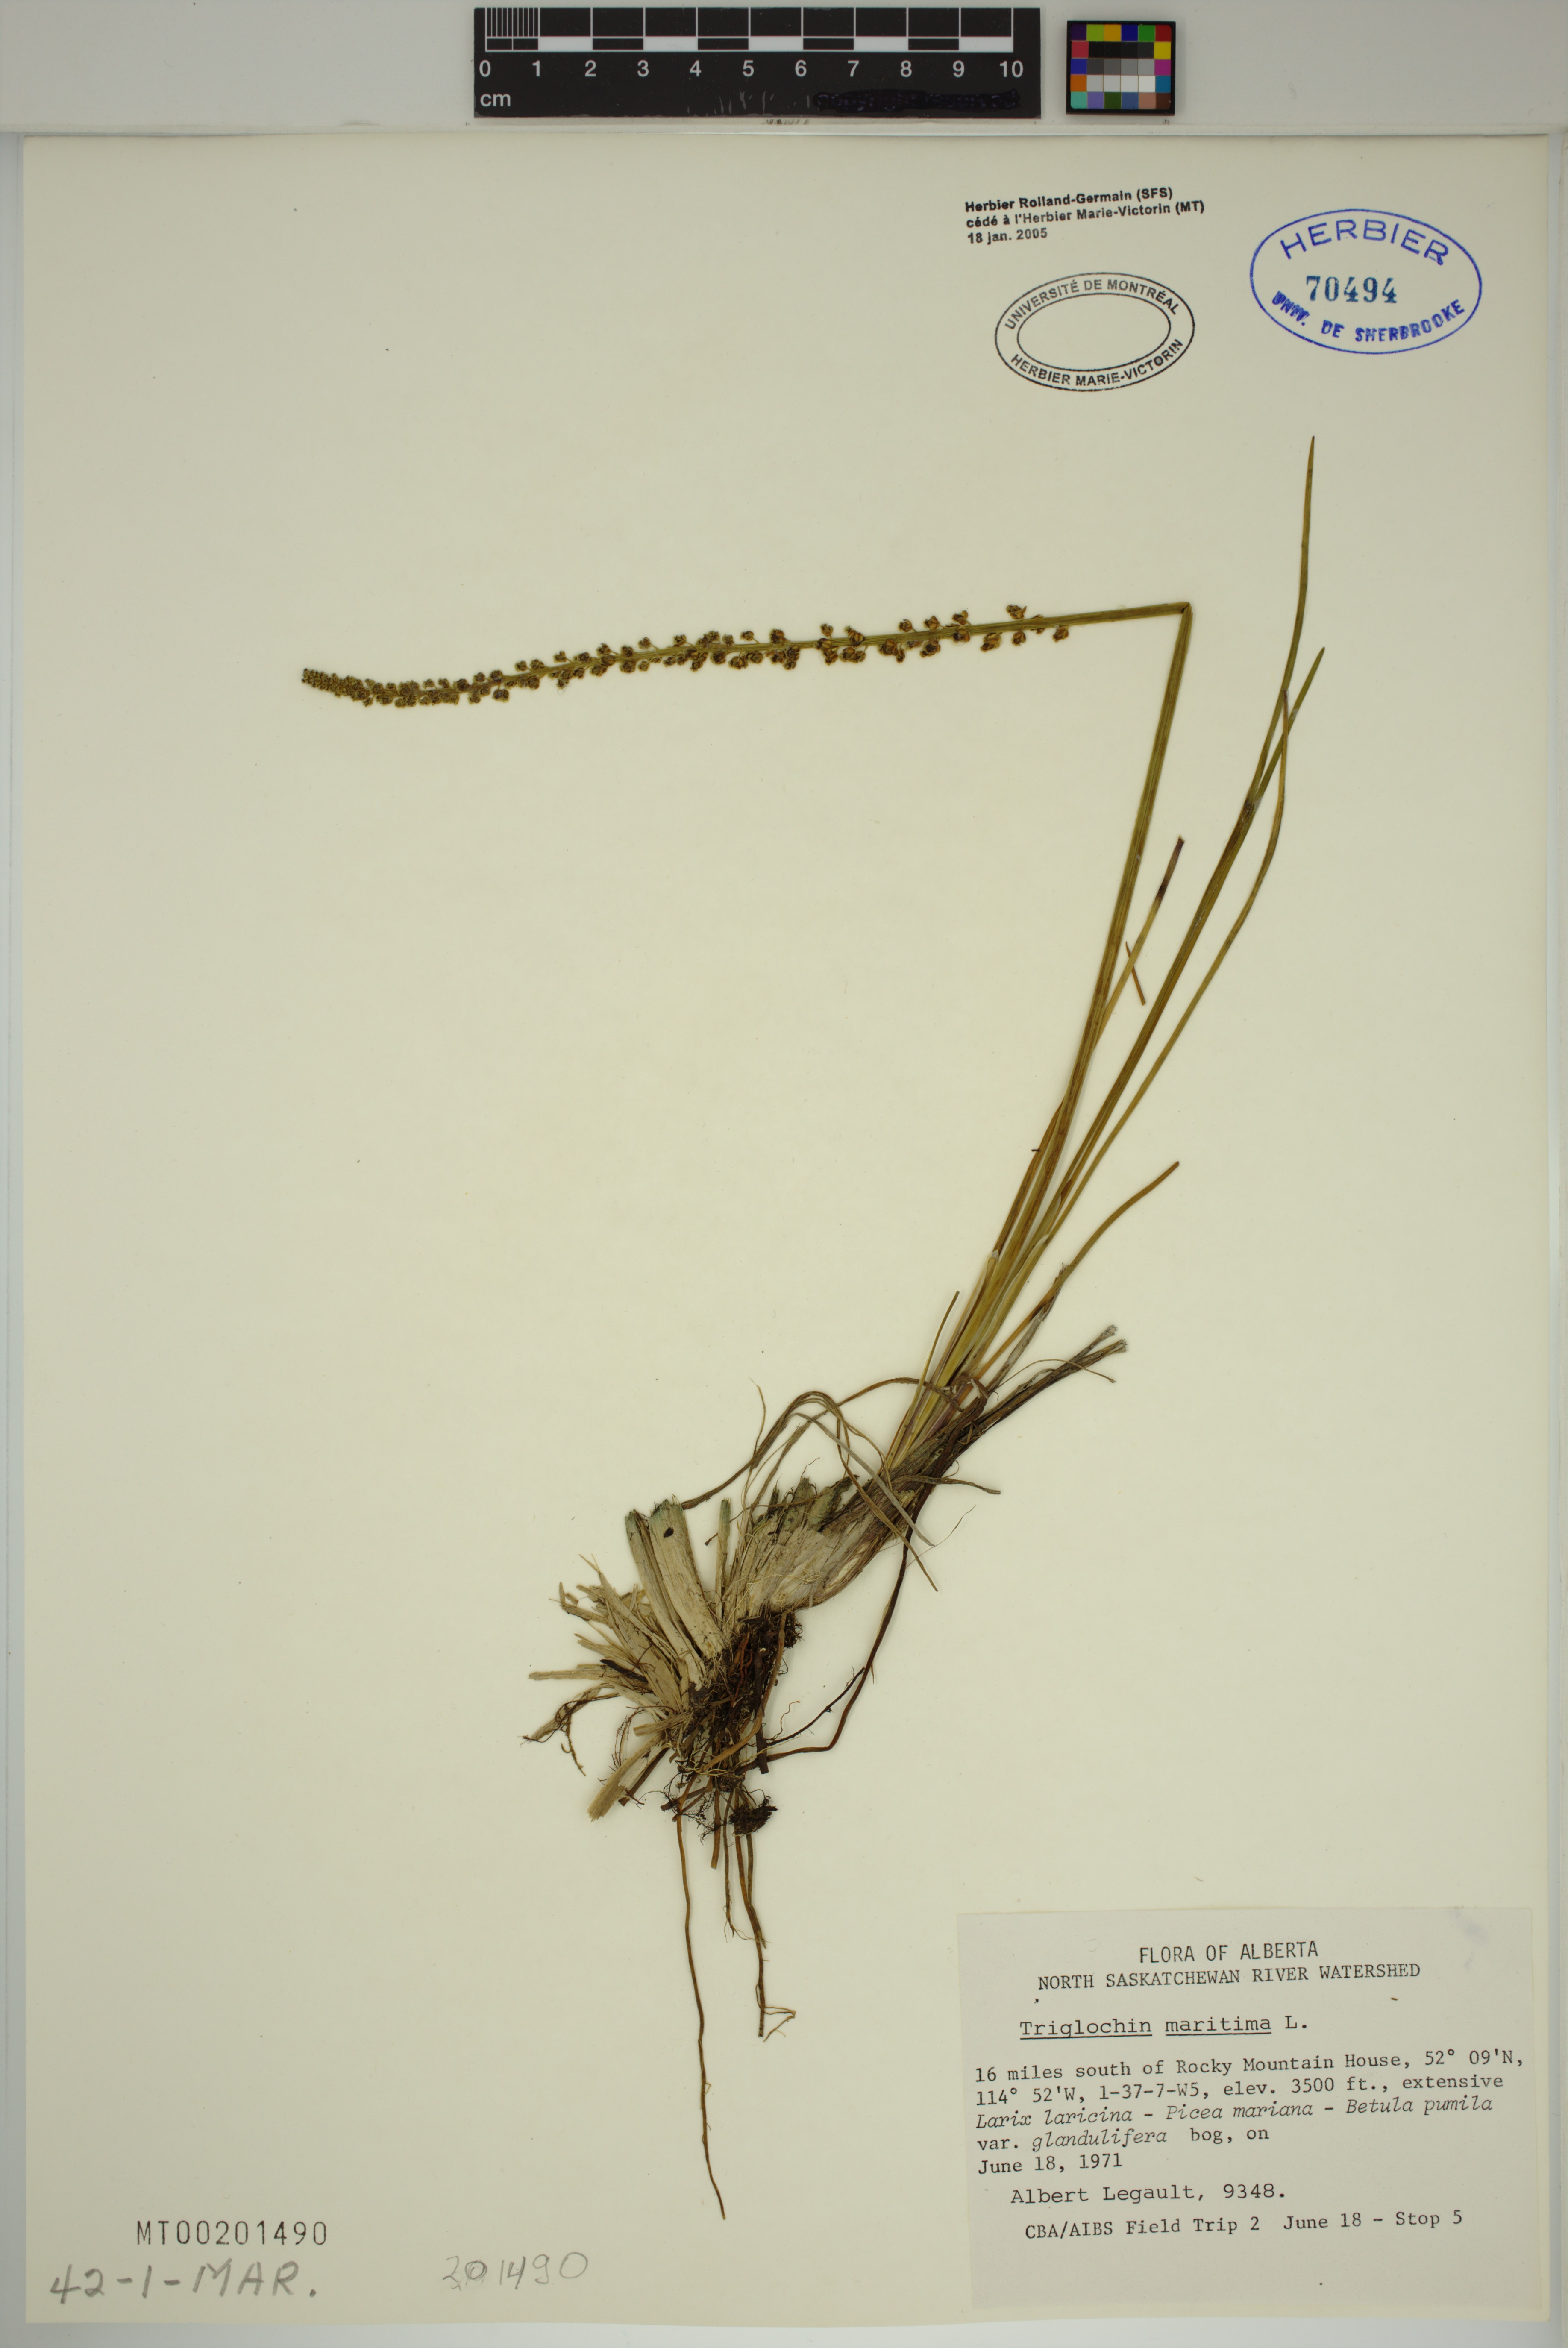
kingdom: Plantae
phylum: Tracheophyta
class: Liliopsida
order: Alismatales
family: Juncaginaceae
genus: Triglochin
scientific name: Triglochin maritima
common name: Sea arrowgrass
